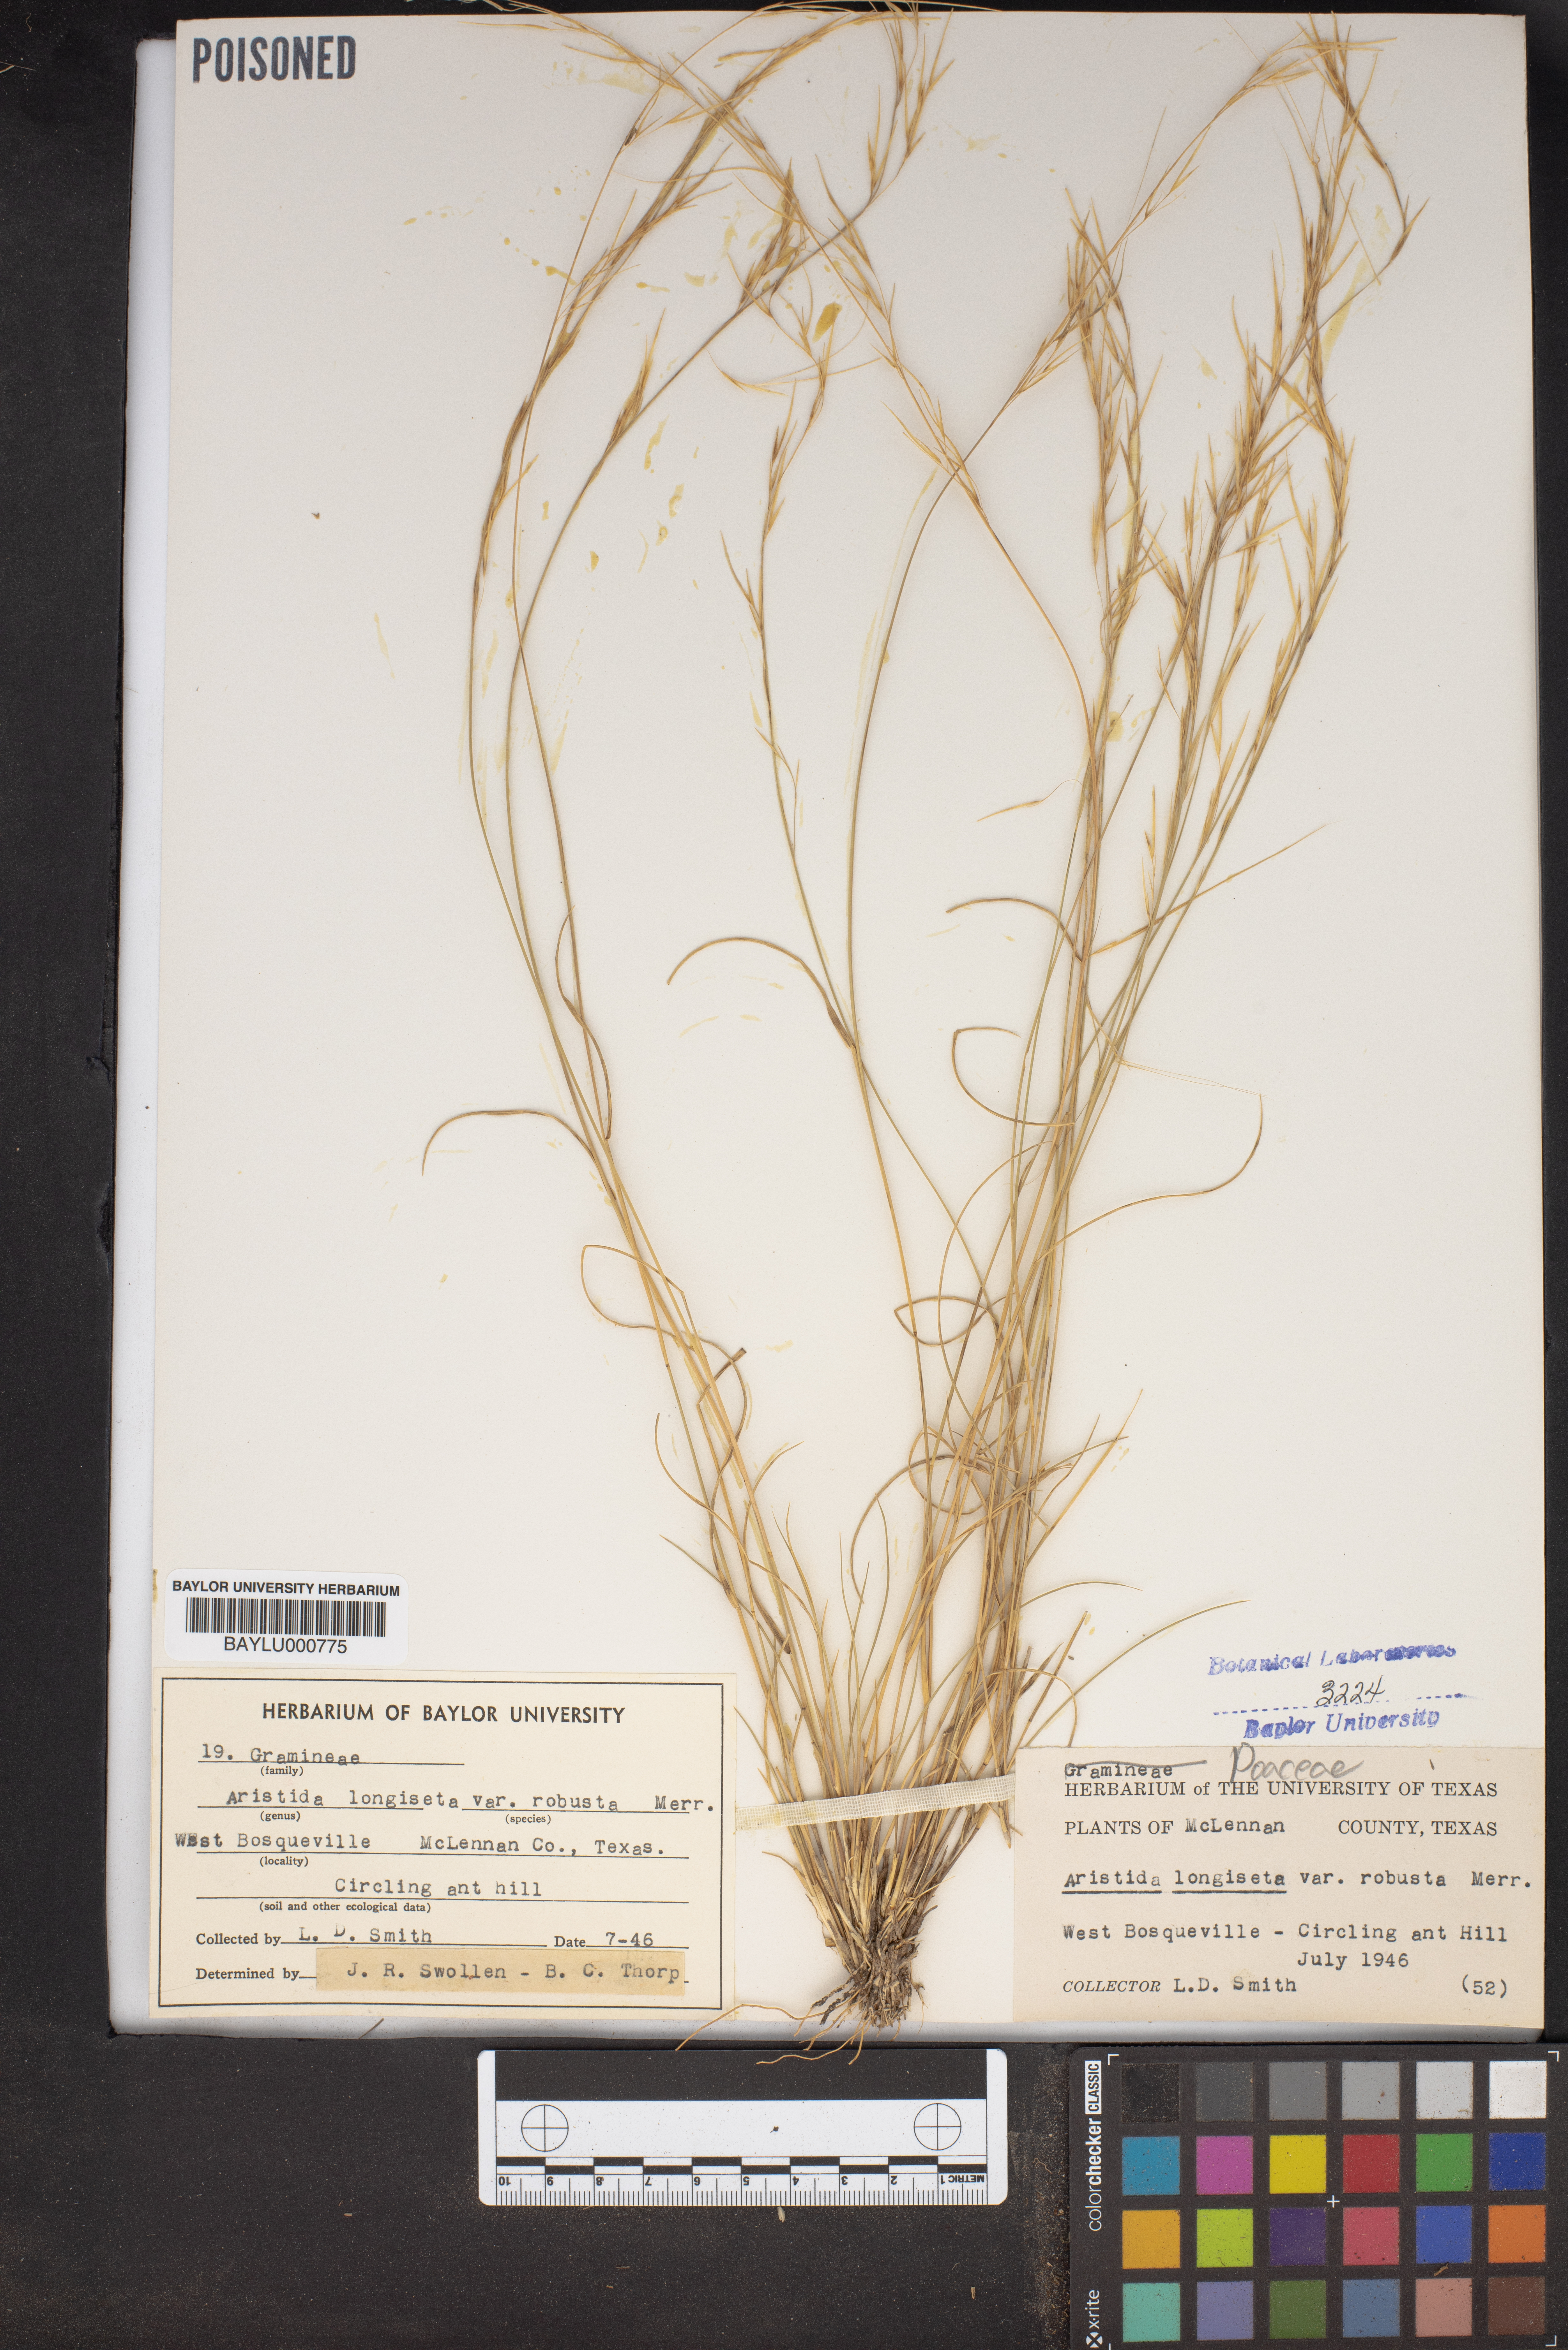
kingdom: Plantae
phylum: Tracheophyta
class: Liliopsida
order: Poales
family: Poaceae
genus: Aristida
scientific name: Aristida longiseta
